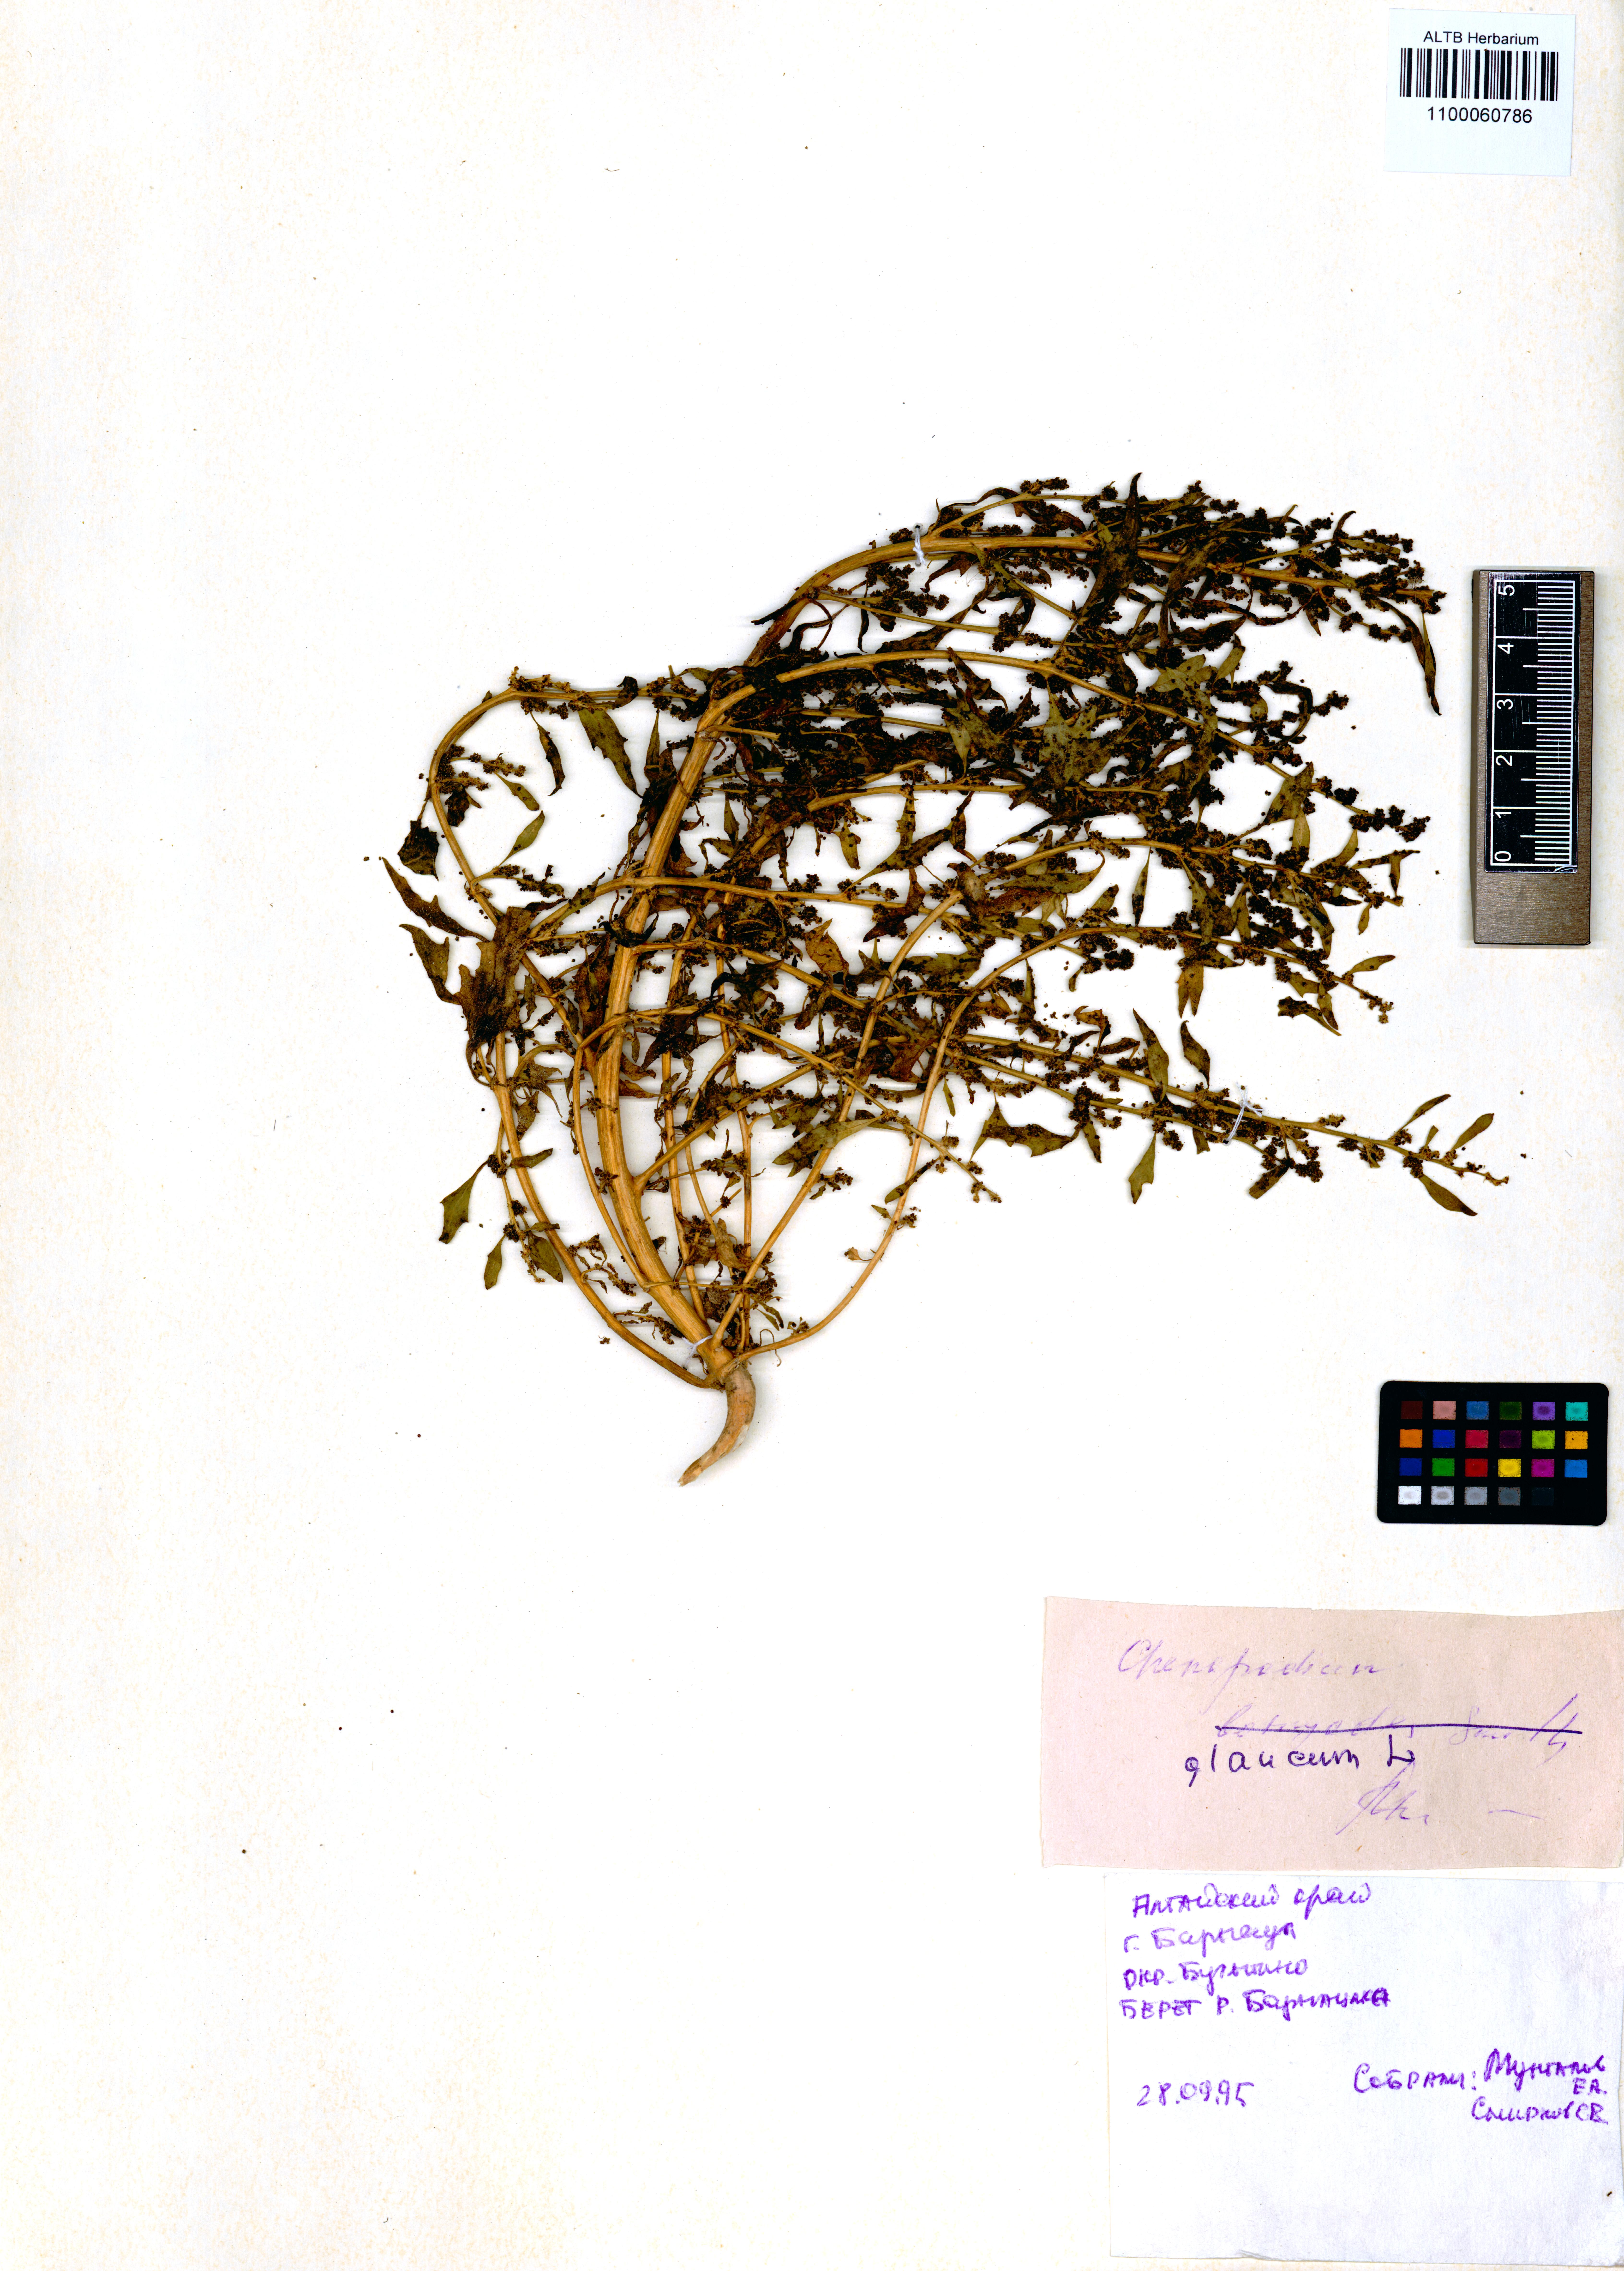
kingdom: Plantae
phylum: Tracheophyta
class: Magnoliopsida
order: Caryophyllales
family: Amaranthaceae
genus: Oxybasis
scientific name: Oxybasis glauca
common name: Glaucous goosefoot
